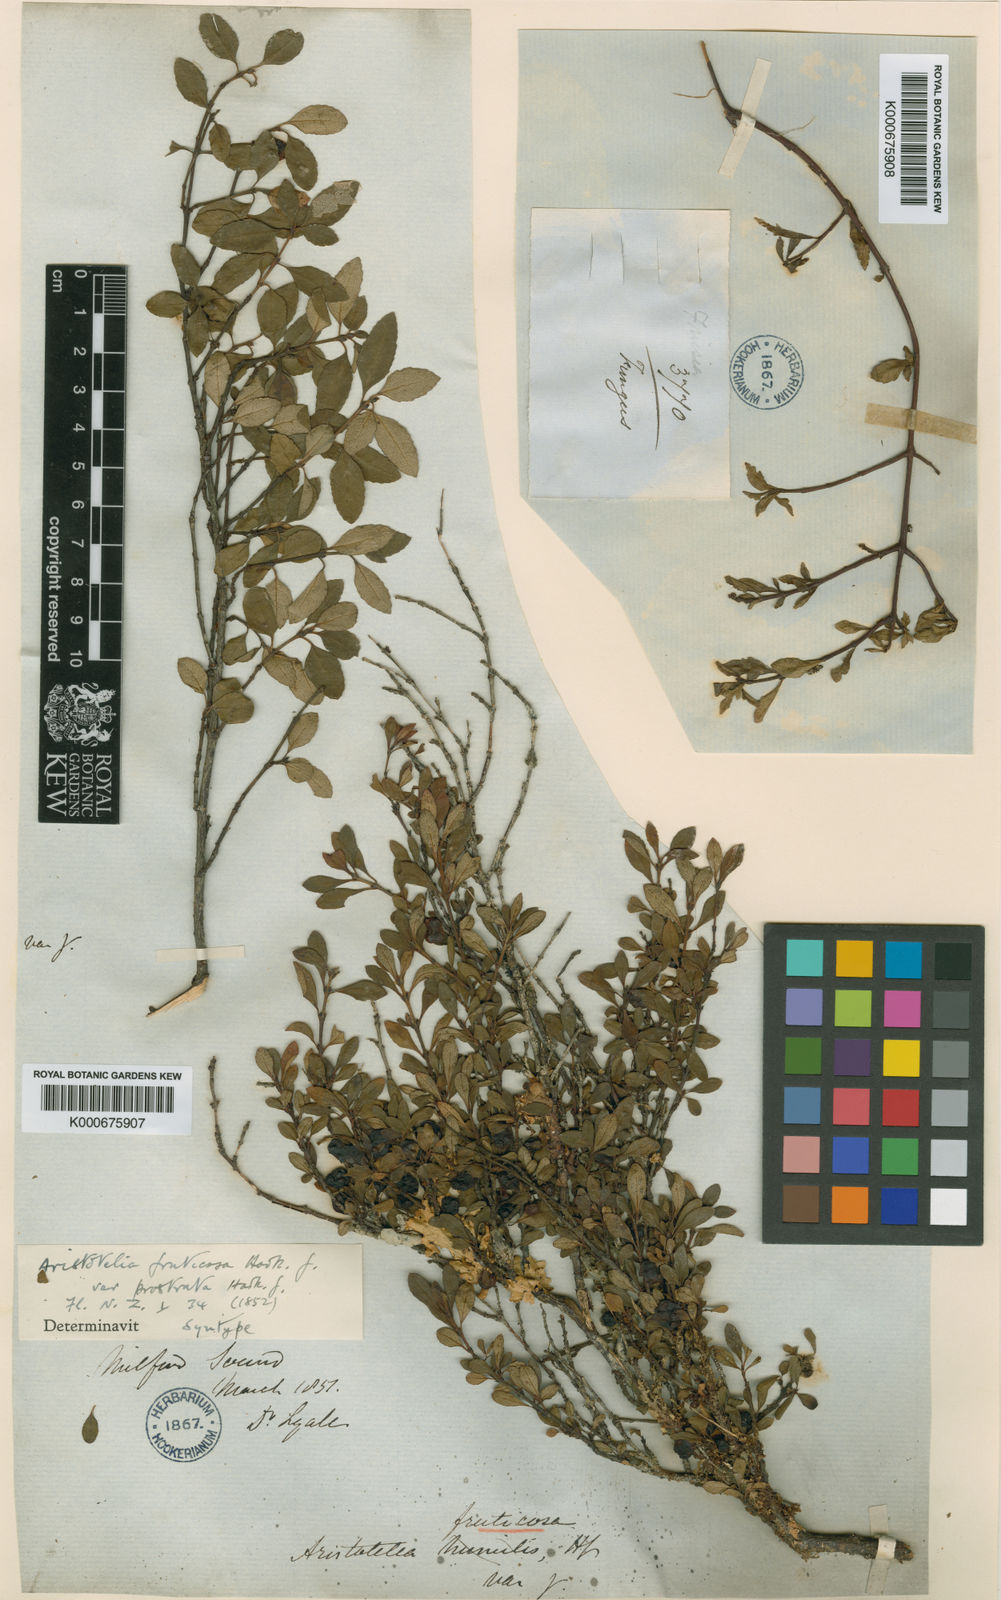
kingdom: Plantae
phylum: Tracheophyta
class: Magnoliopsida
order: Oxalidales
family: Elaeocarpaceae
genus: Aristotelia
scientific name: Aristotelia fruticosa
